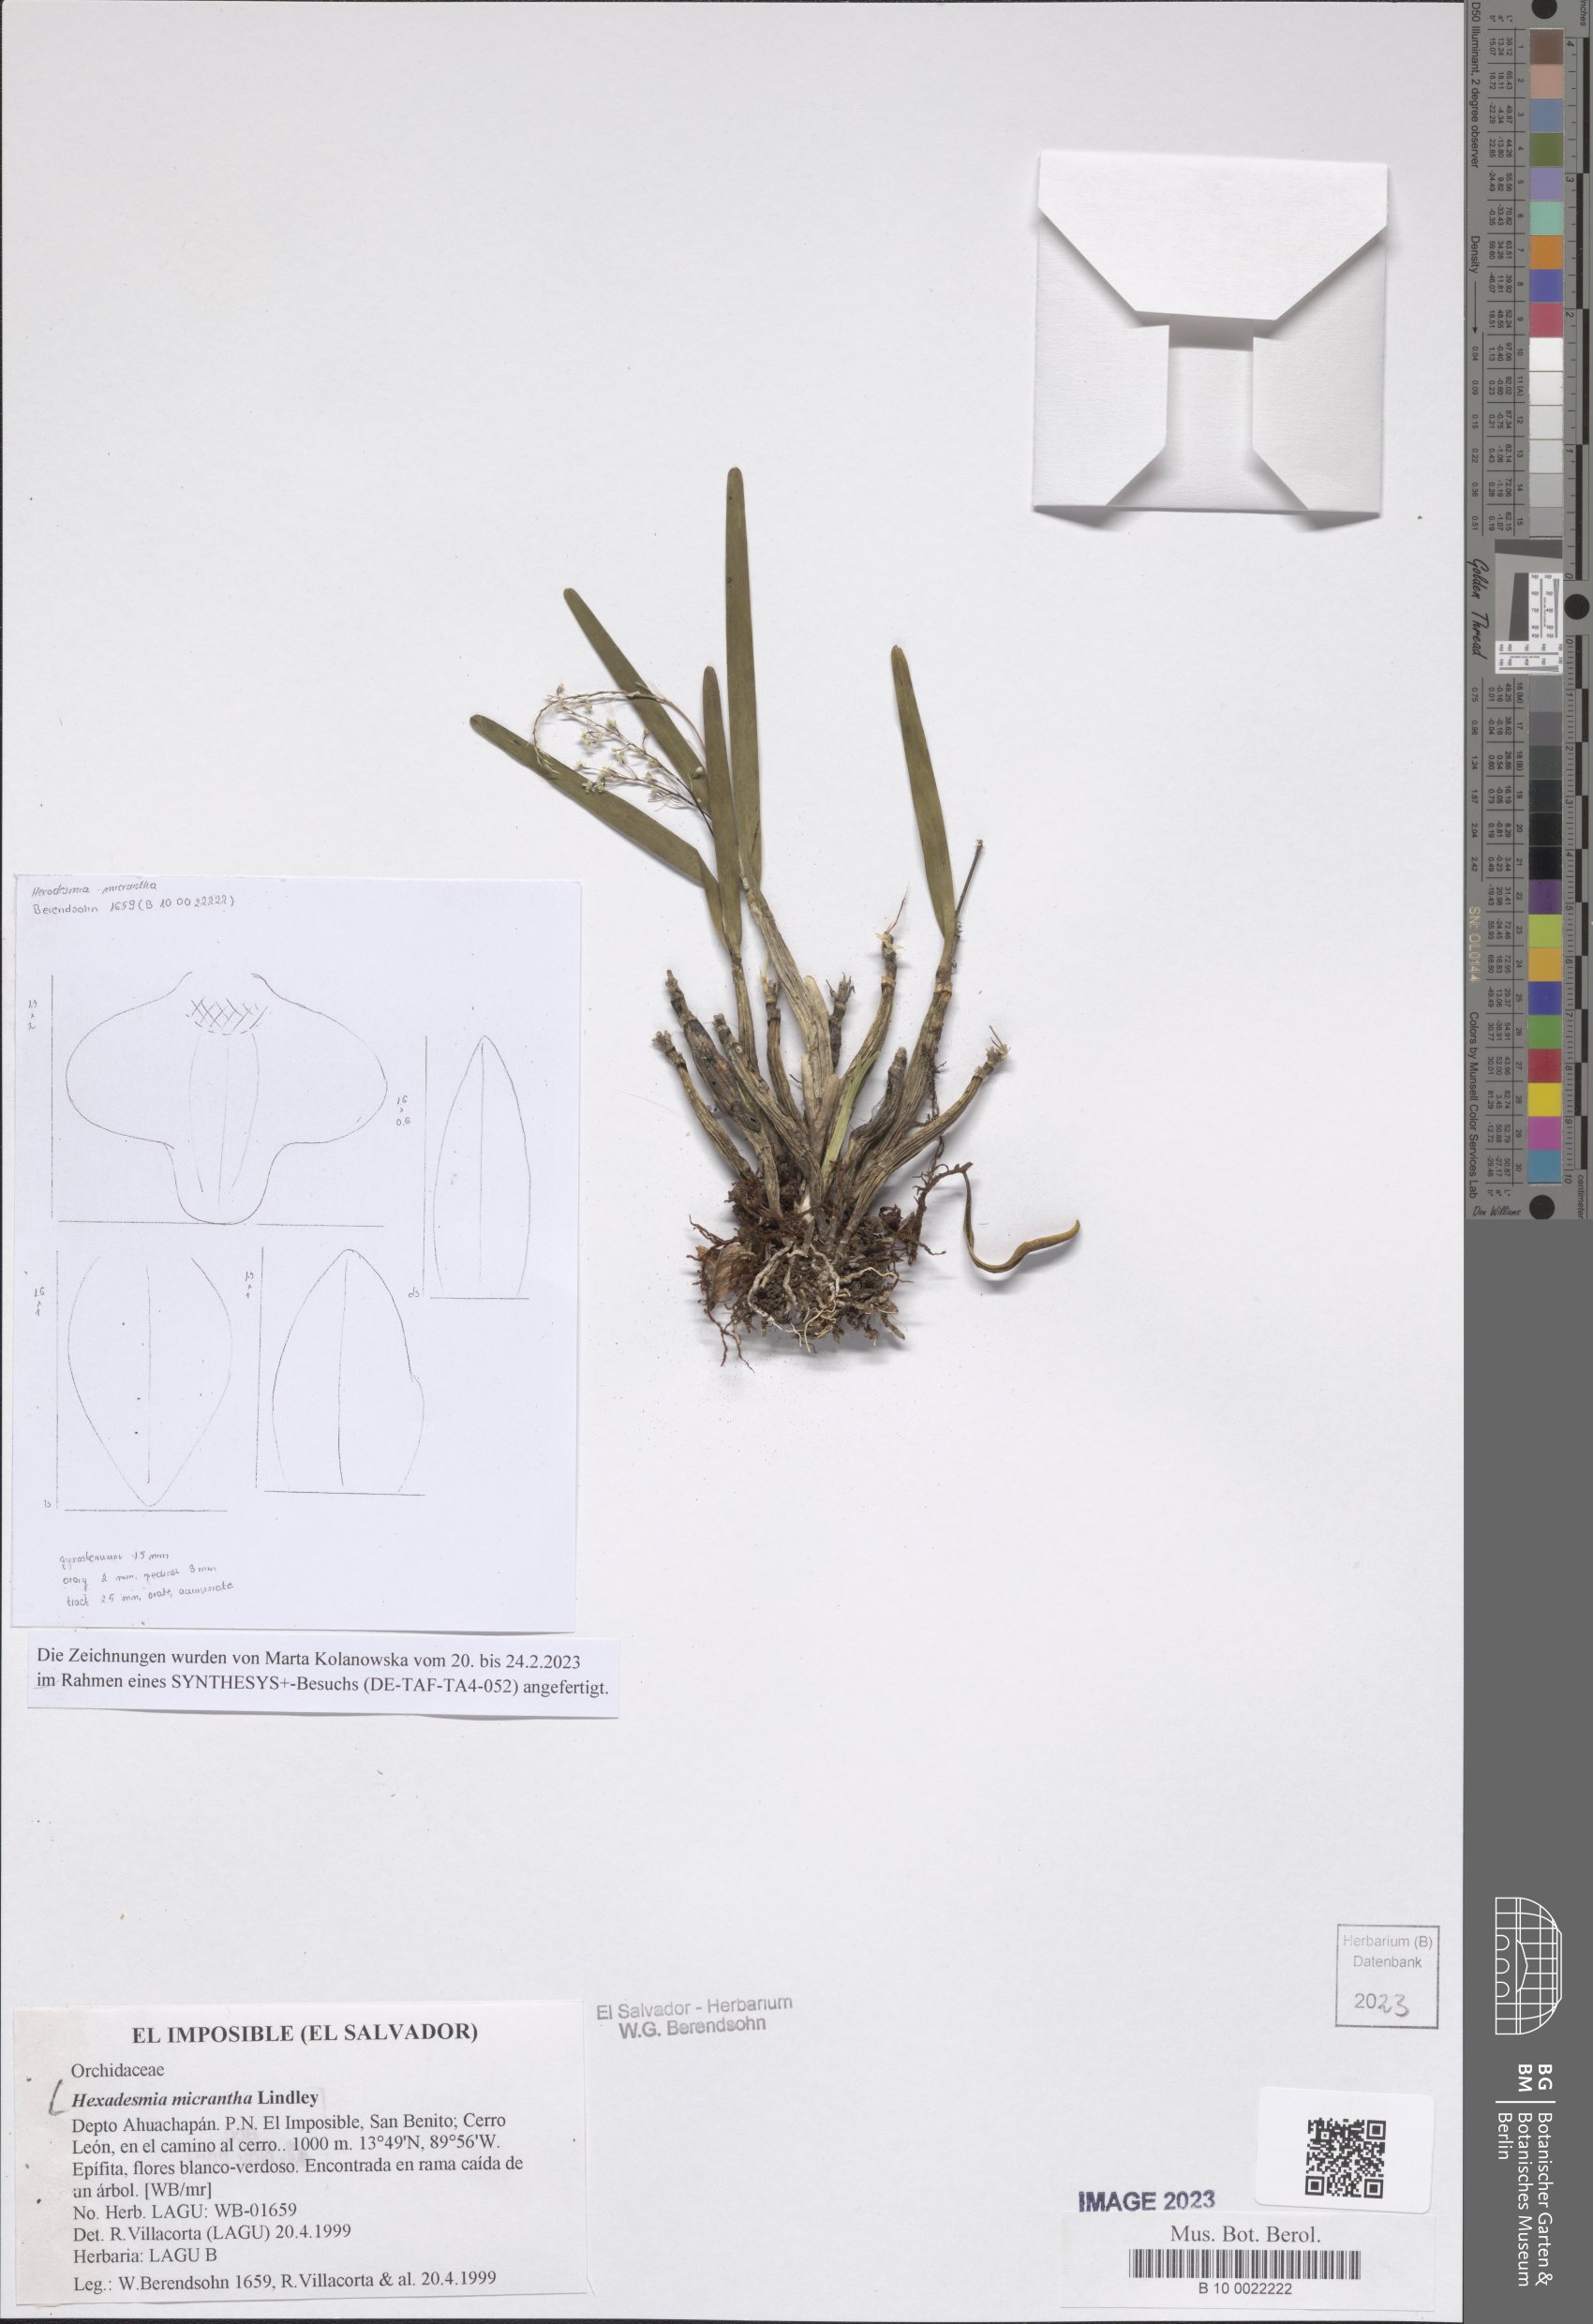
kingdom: Plantae
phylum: Tracheophyta
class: Liliopsida
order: Asparagales
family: Orchidaceae
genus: Scaphyglottis
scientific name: Scaphyglottis micrantha
